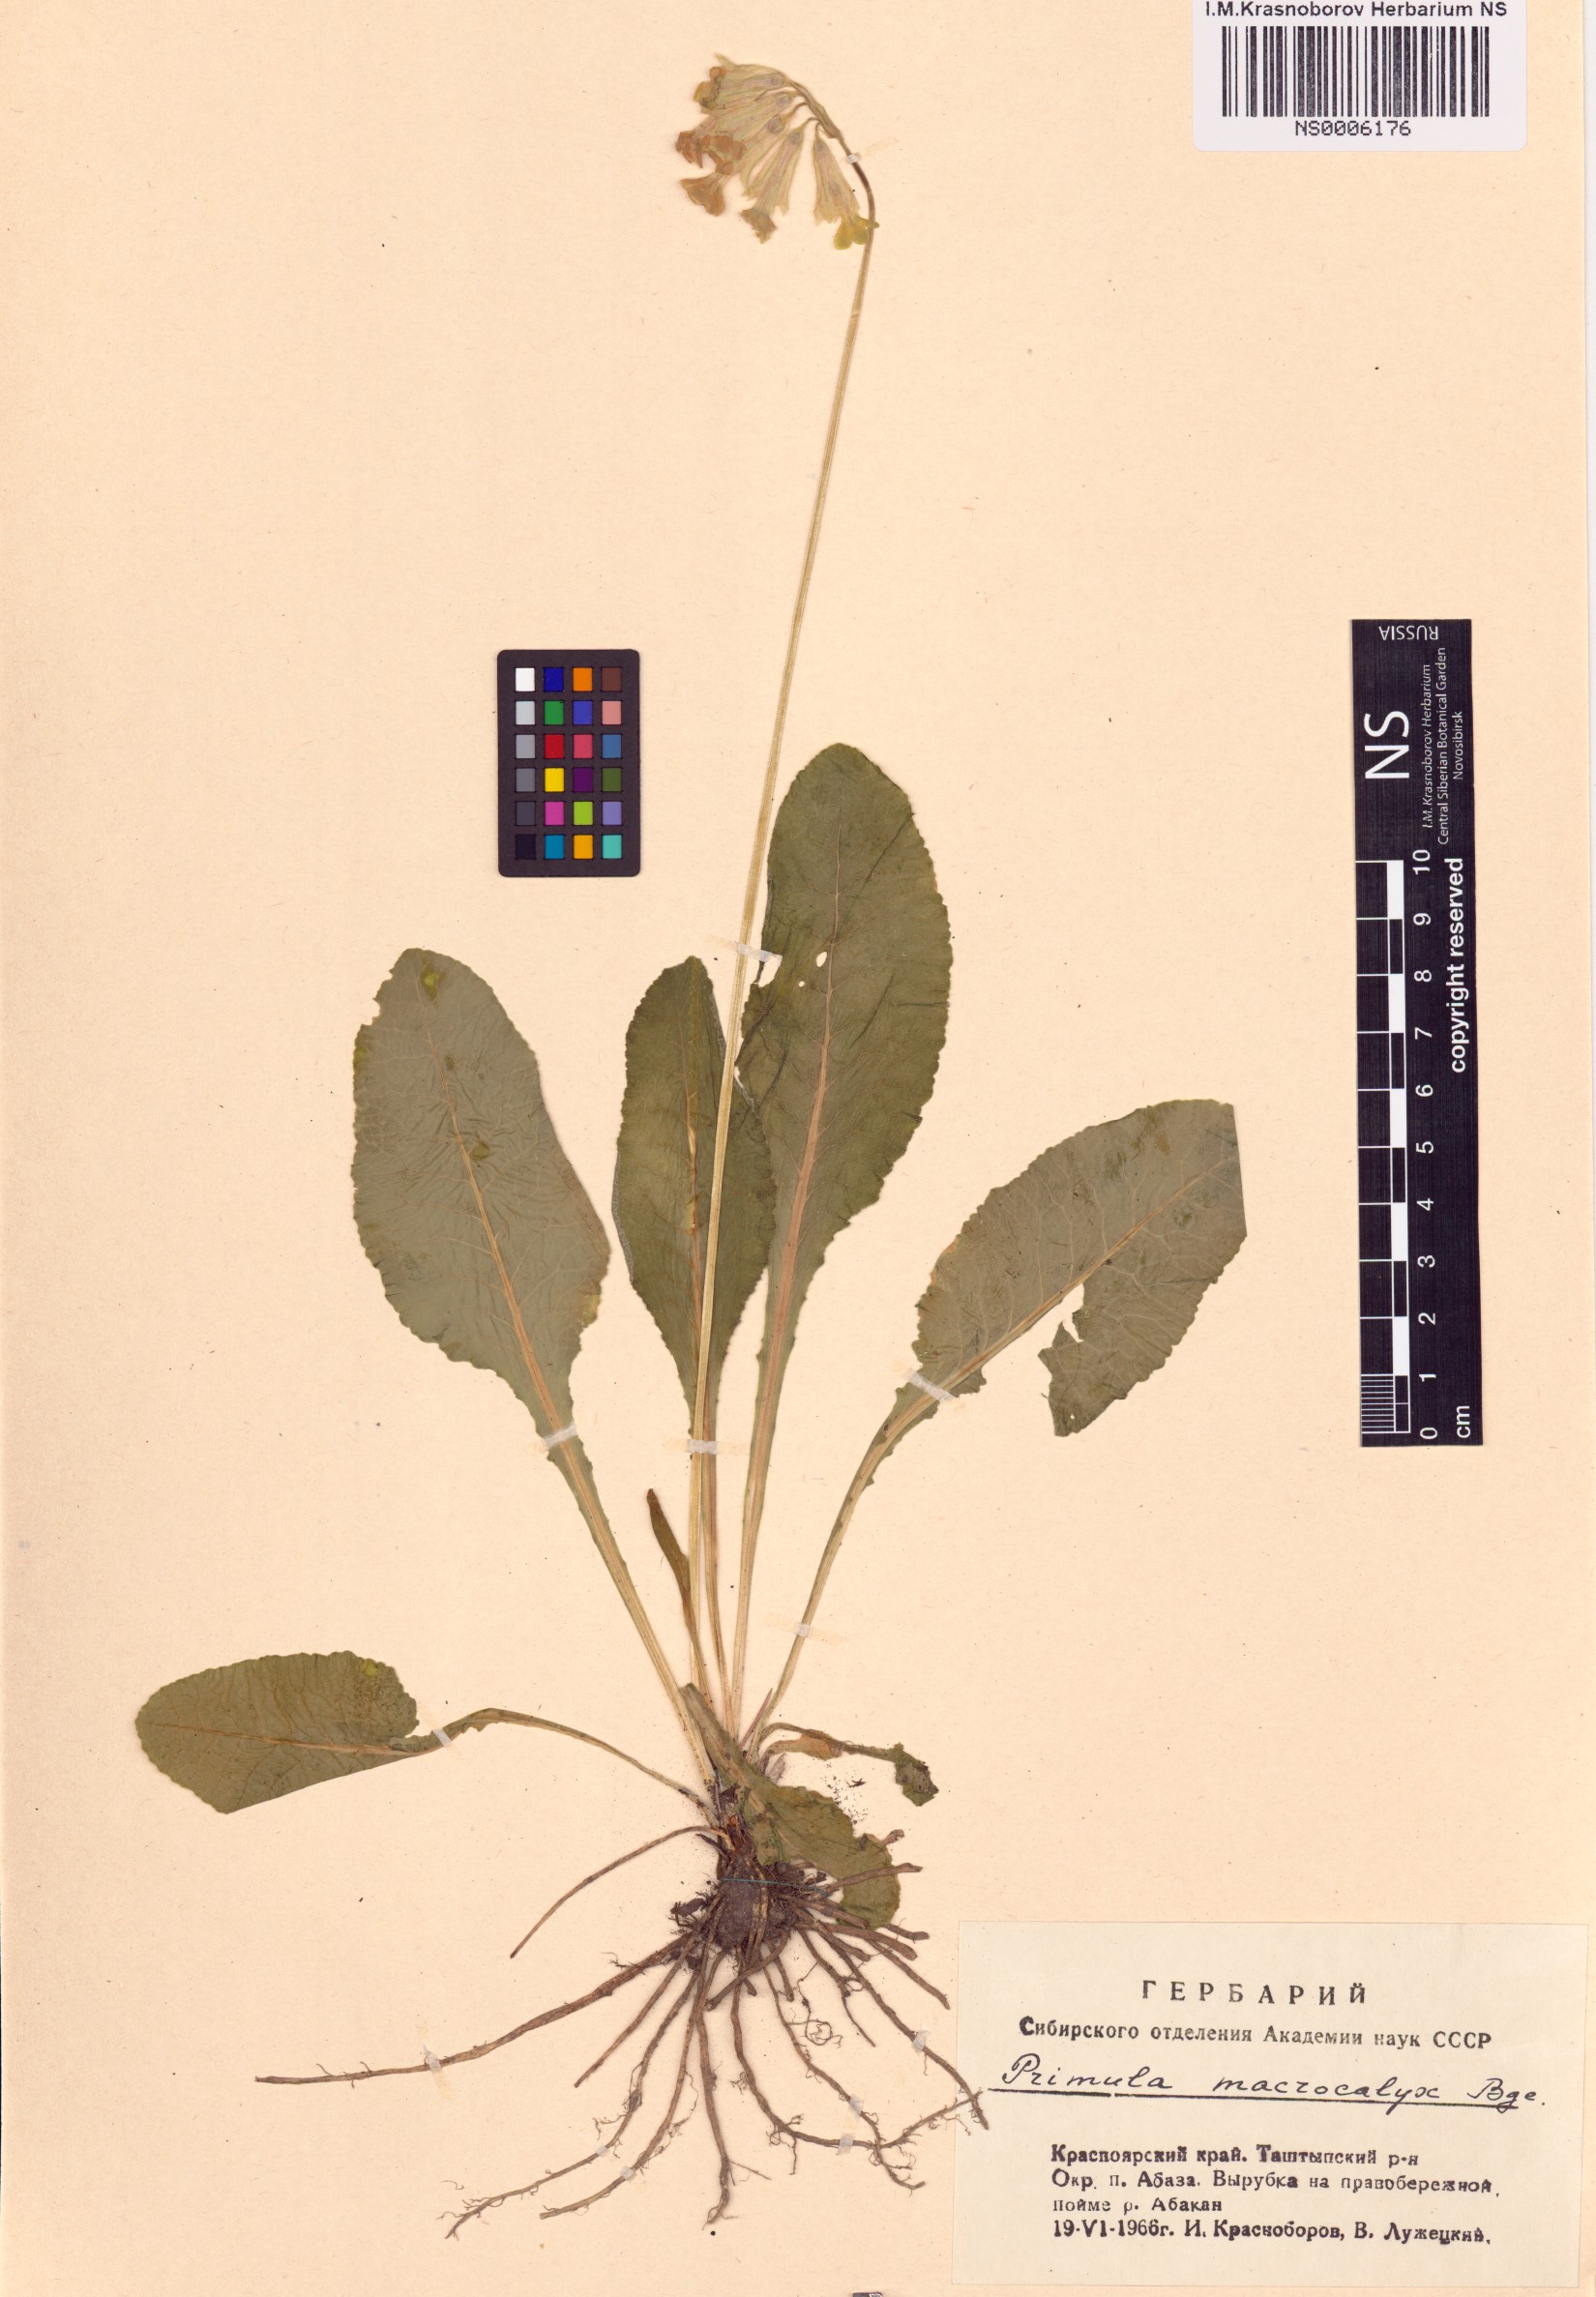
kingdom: Plantae
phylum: Tracheophyta
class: Magnoliopsida
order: Ericales
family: Primulaceae
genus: Primula
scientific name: Primula veris
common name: Cowslip
